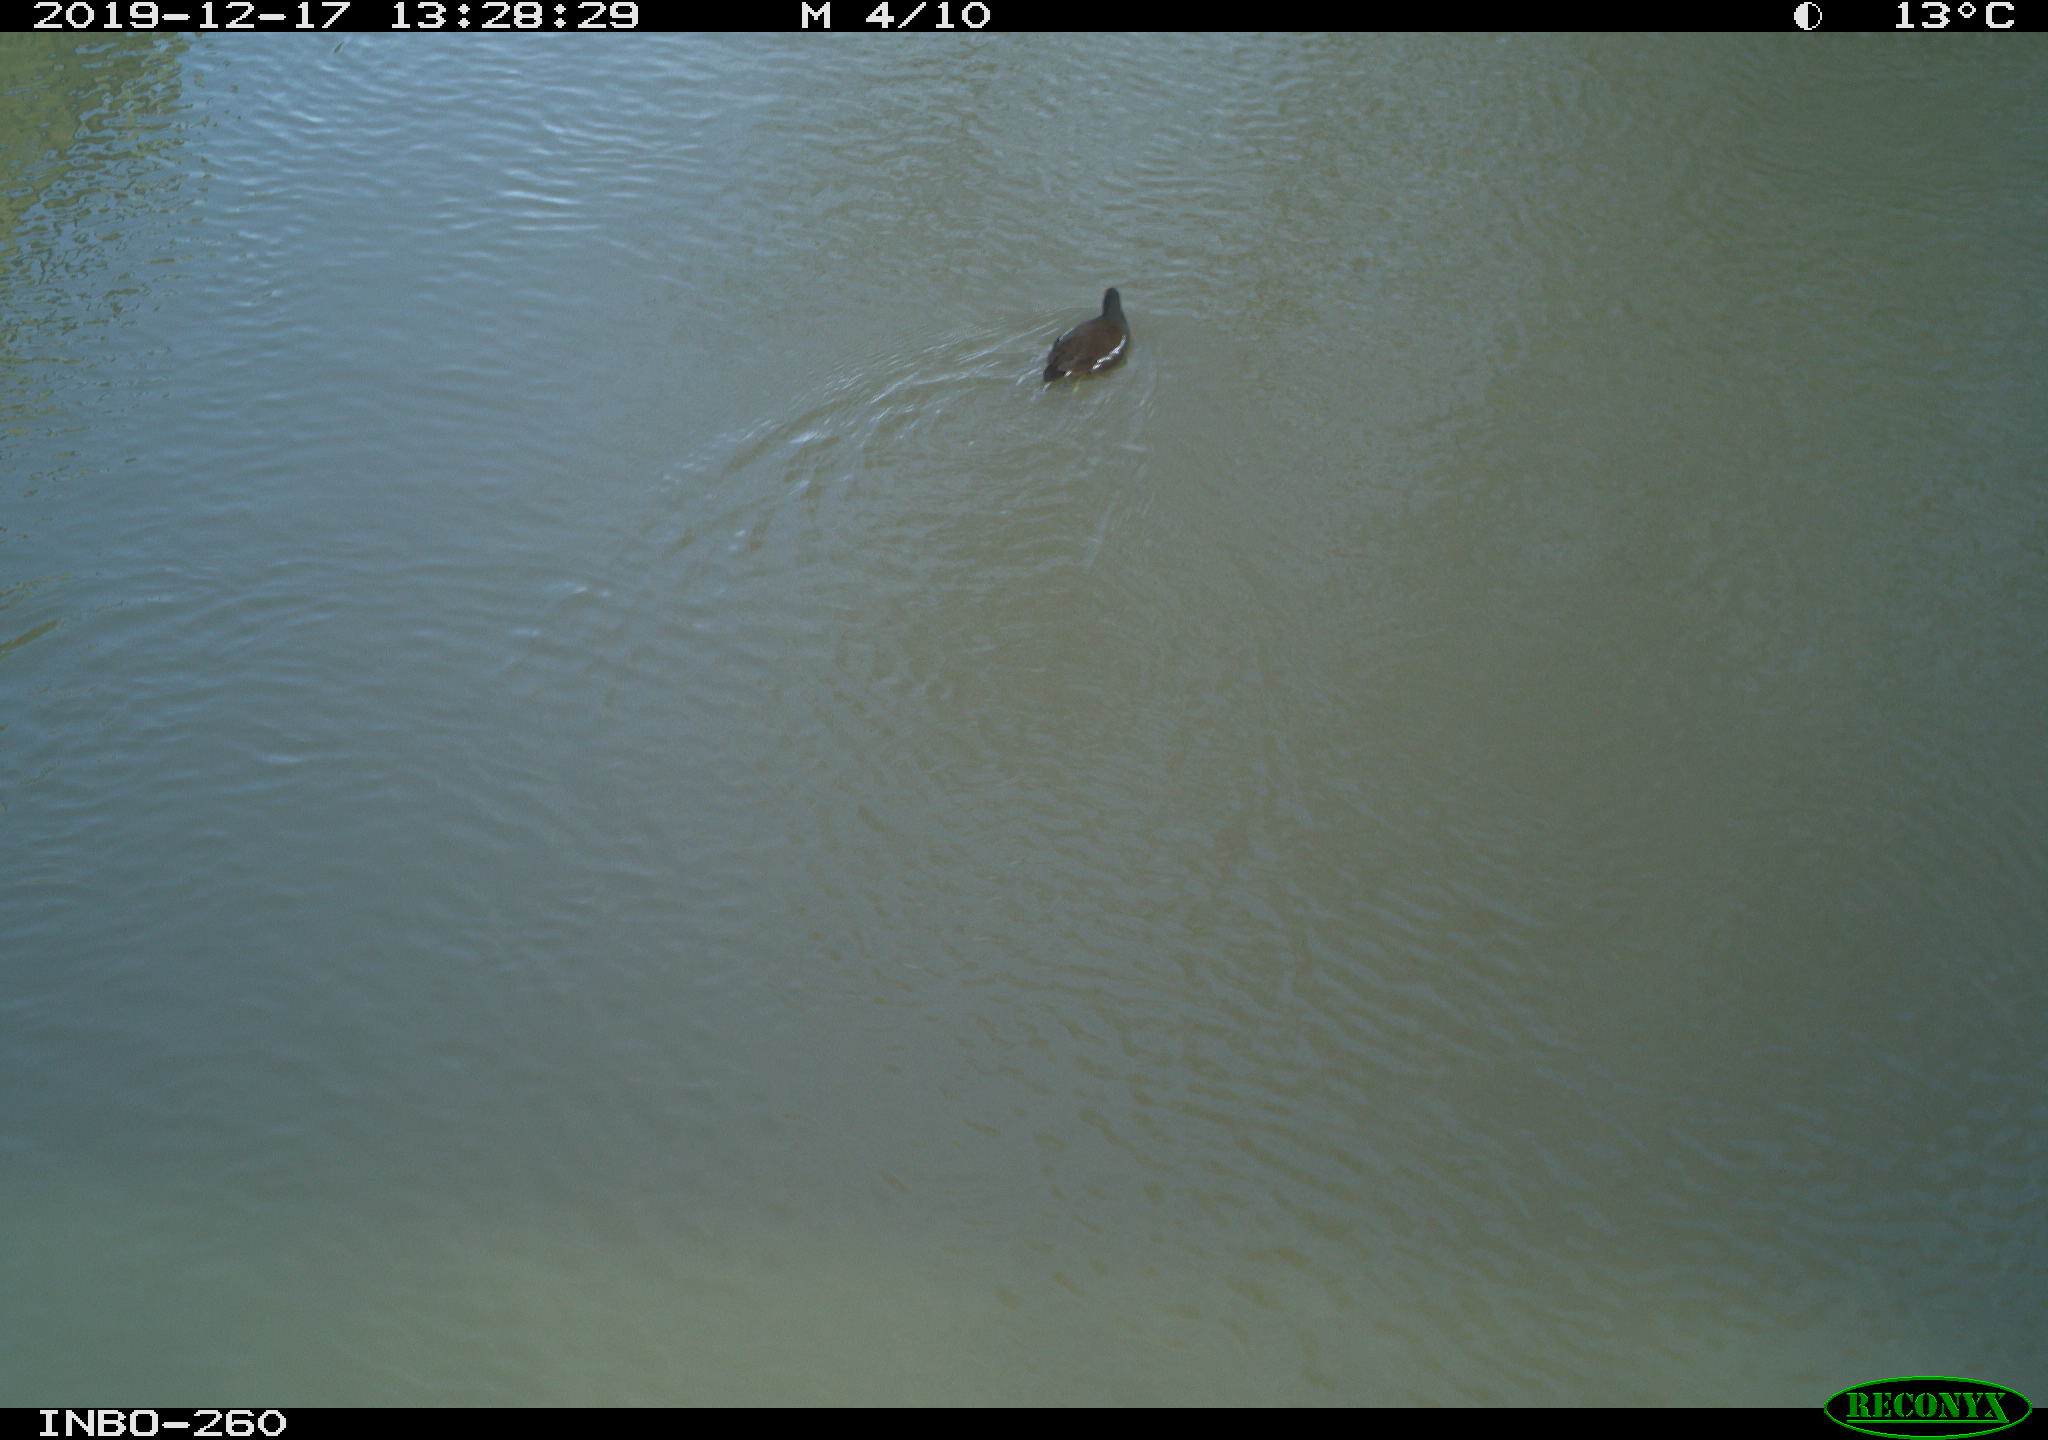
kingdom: Animalia
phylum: Chordata
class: Aves
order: Gruiformes
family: Rallidae
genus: Gallinula
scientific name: Gallinula chloropus
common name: Common moorhen
